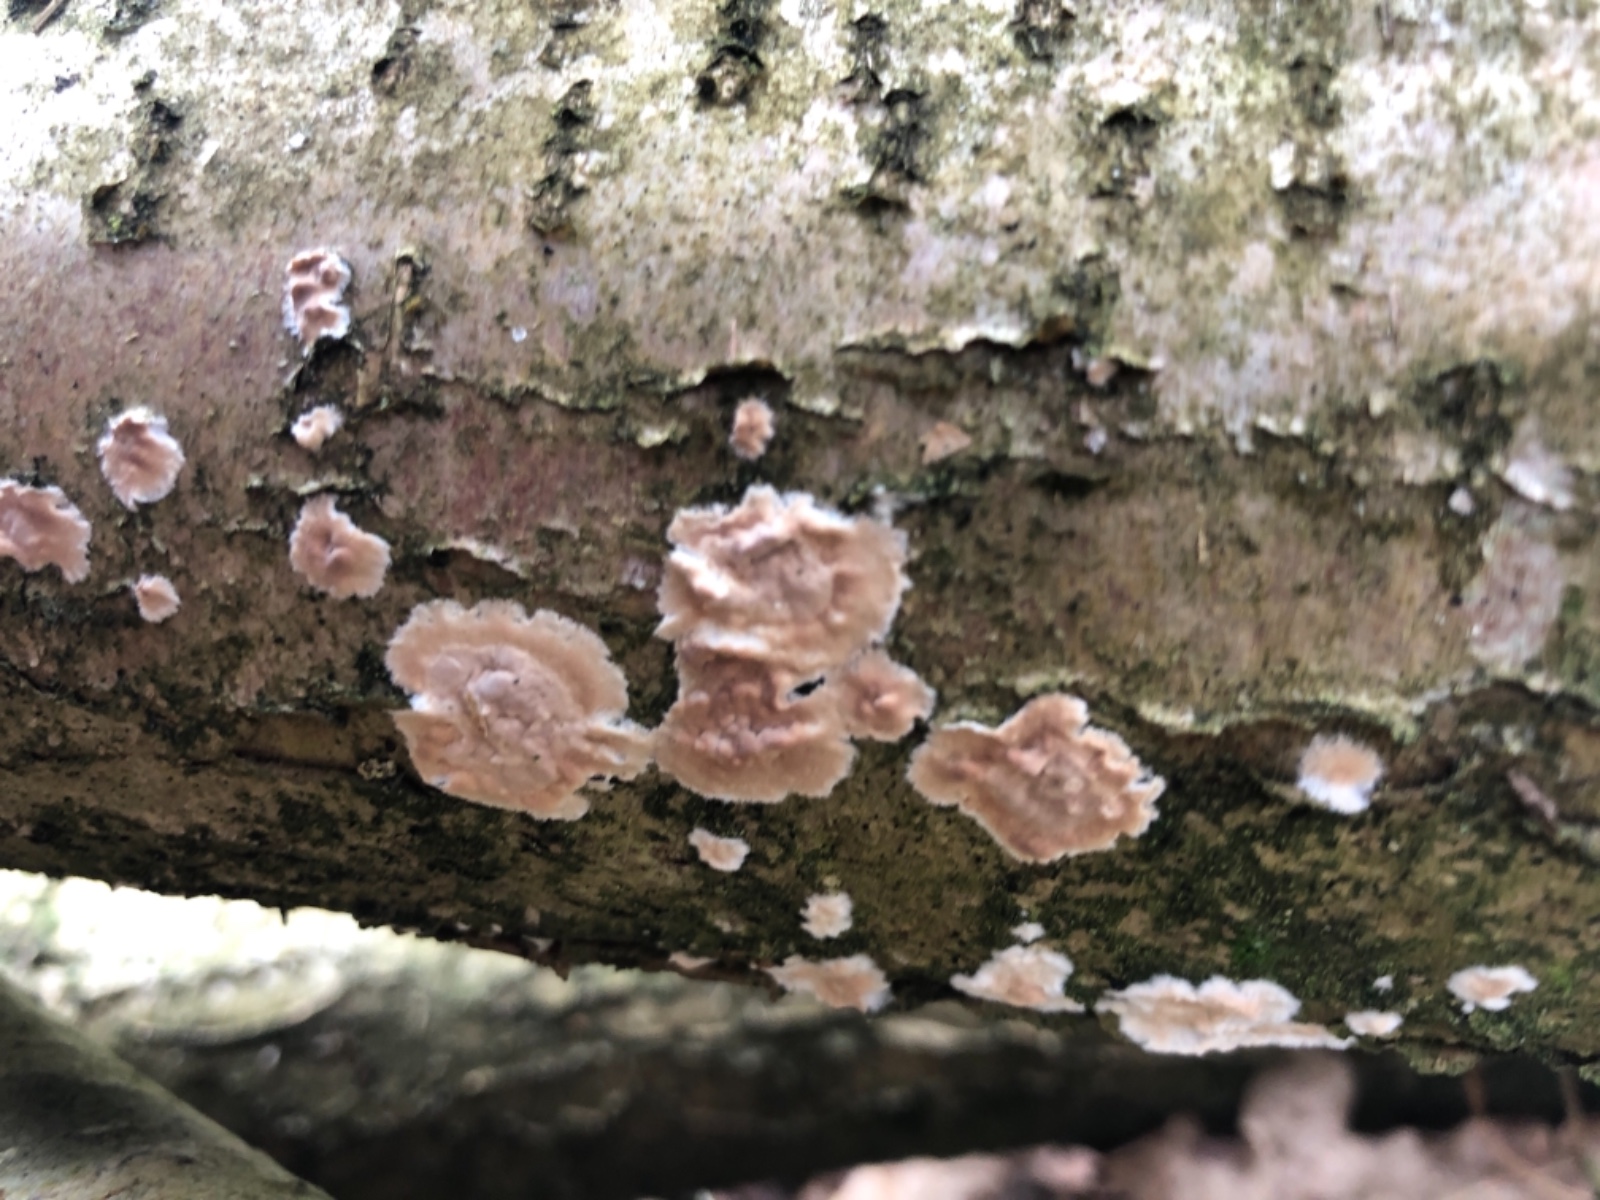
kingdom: Fungi
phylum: Basidiomycota
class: Agaricomycetes
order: Agaricales
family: Physalacriaceae
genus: Cylindrobasidium
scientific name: Cylindrobasidium evolvens
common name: sprækkehinde
